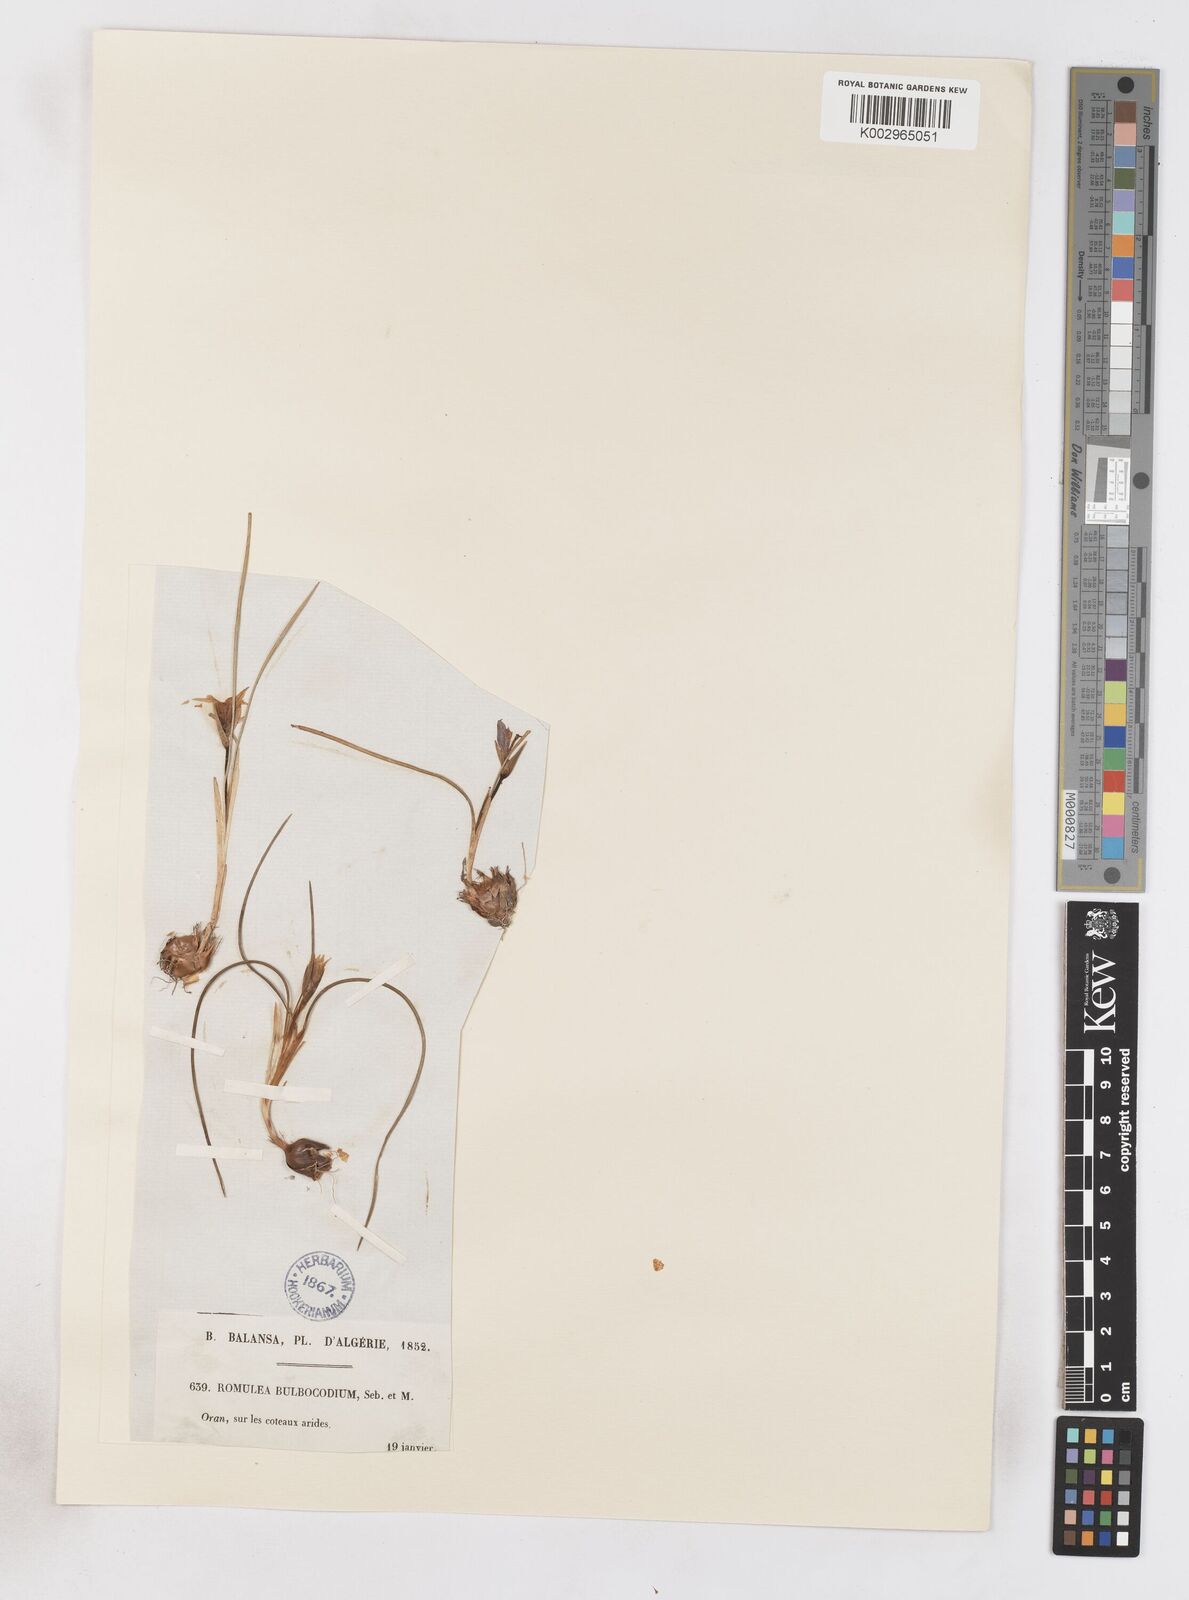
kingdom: Plantae
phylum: Tracheophyta
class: Liliopsida
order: Asparagales
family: Iridaceae
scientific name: Iridaceae
